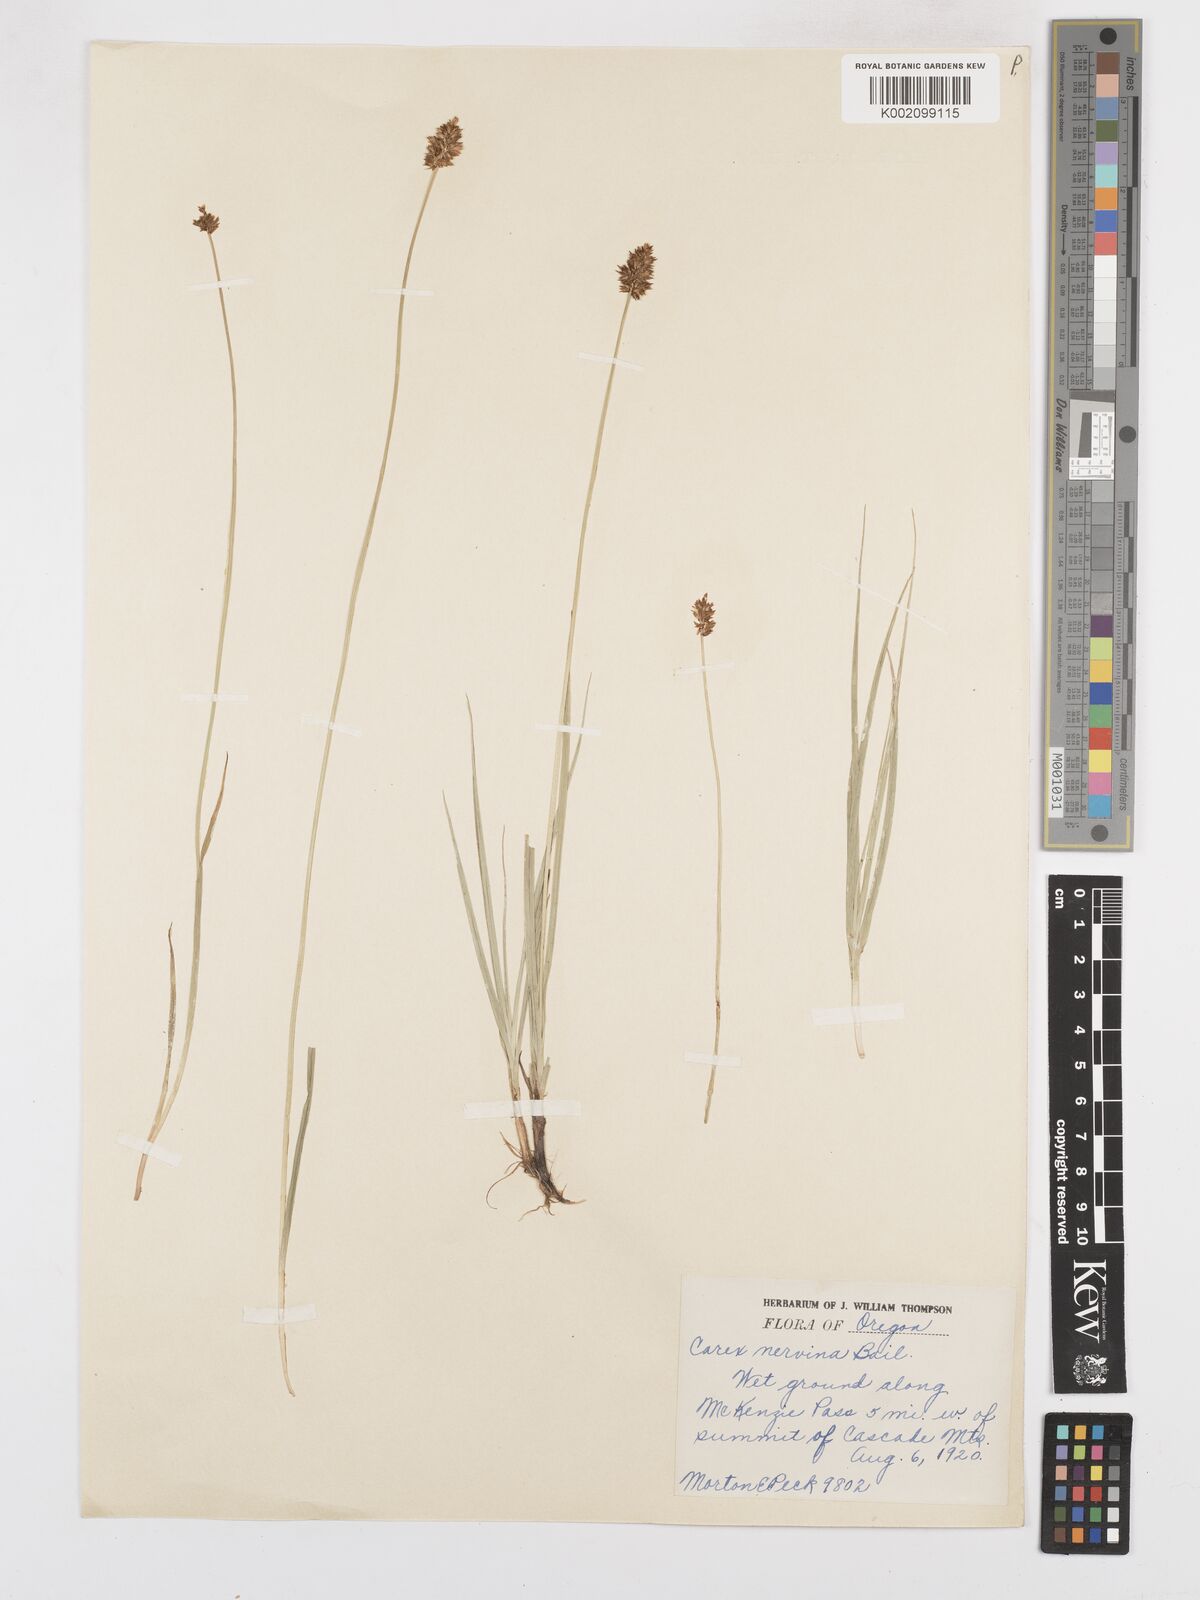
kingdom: Plantae
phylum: Tracheophyta
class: Liliopsida
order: Poales
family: Cyperaceae
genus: Carex
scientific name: Carex nervina
